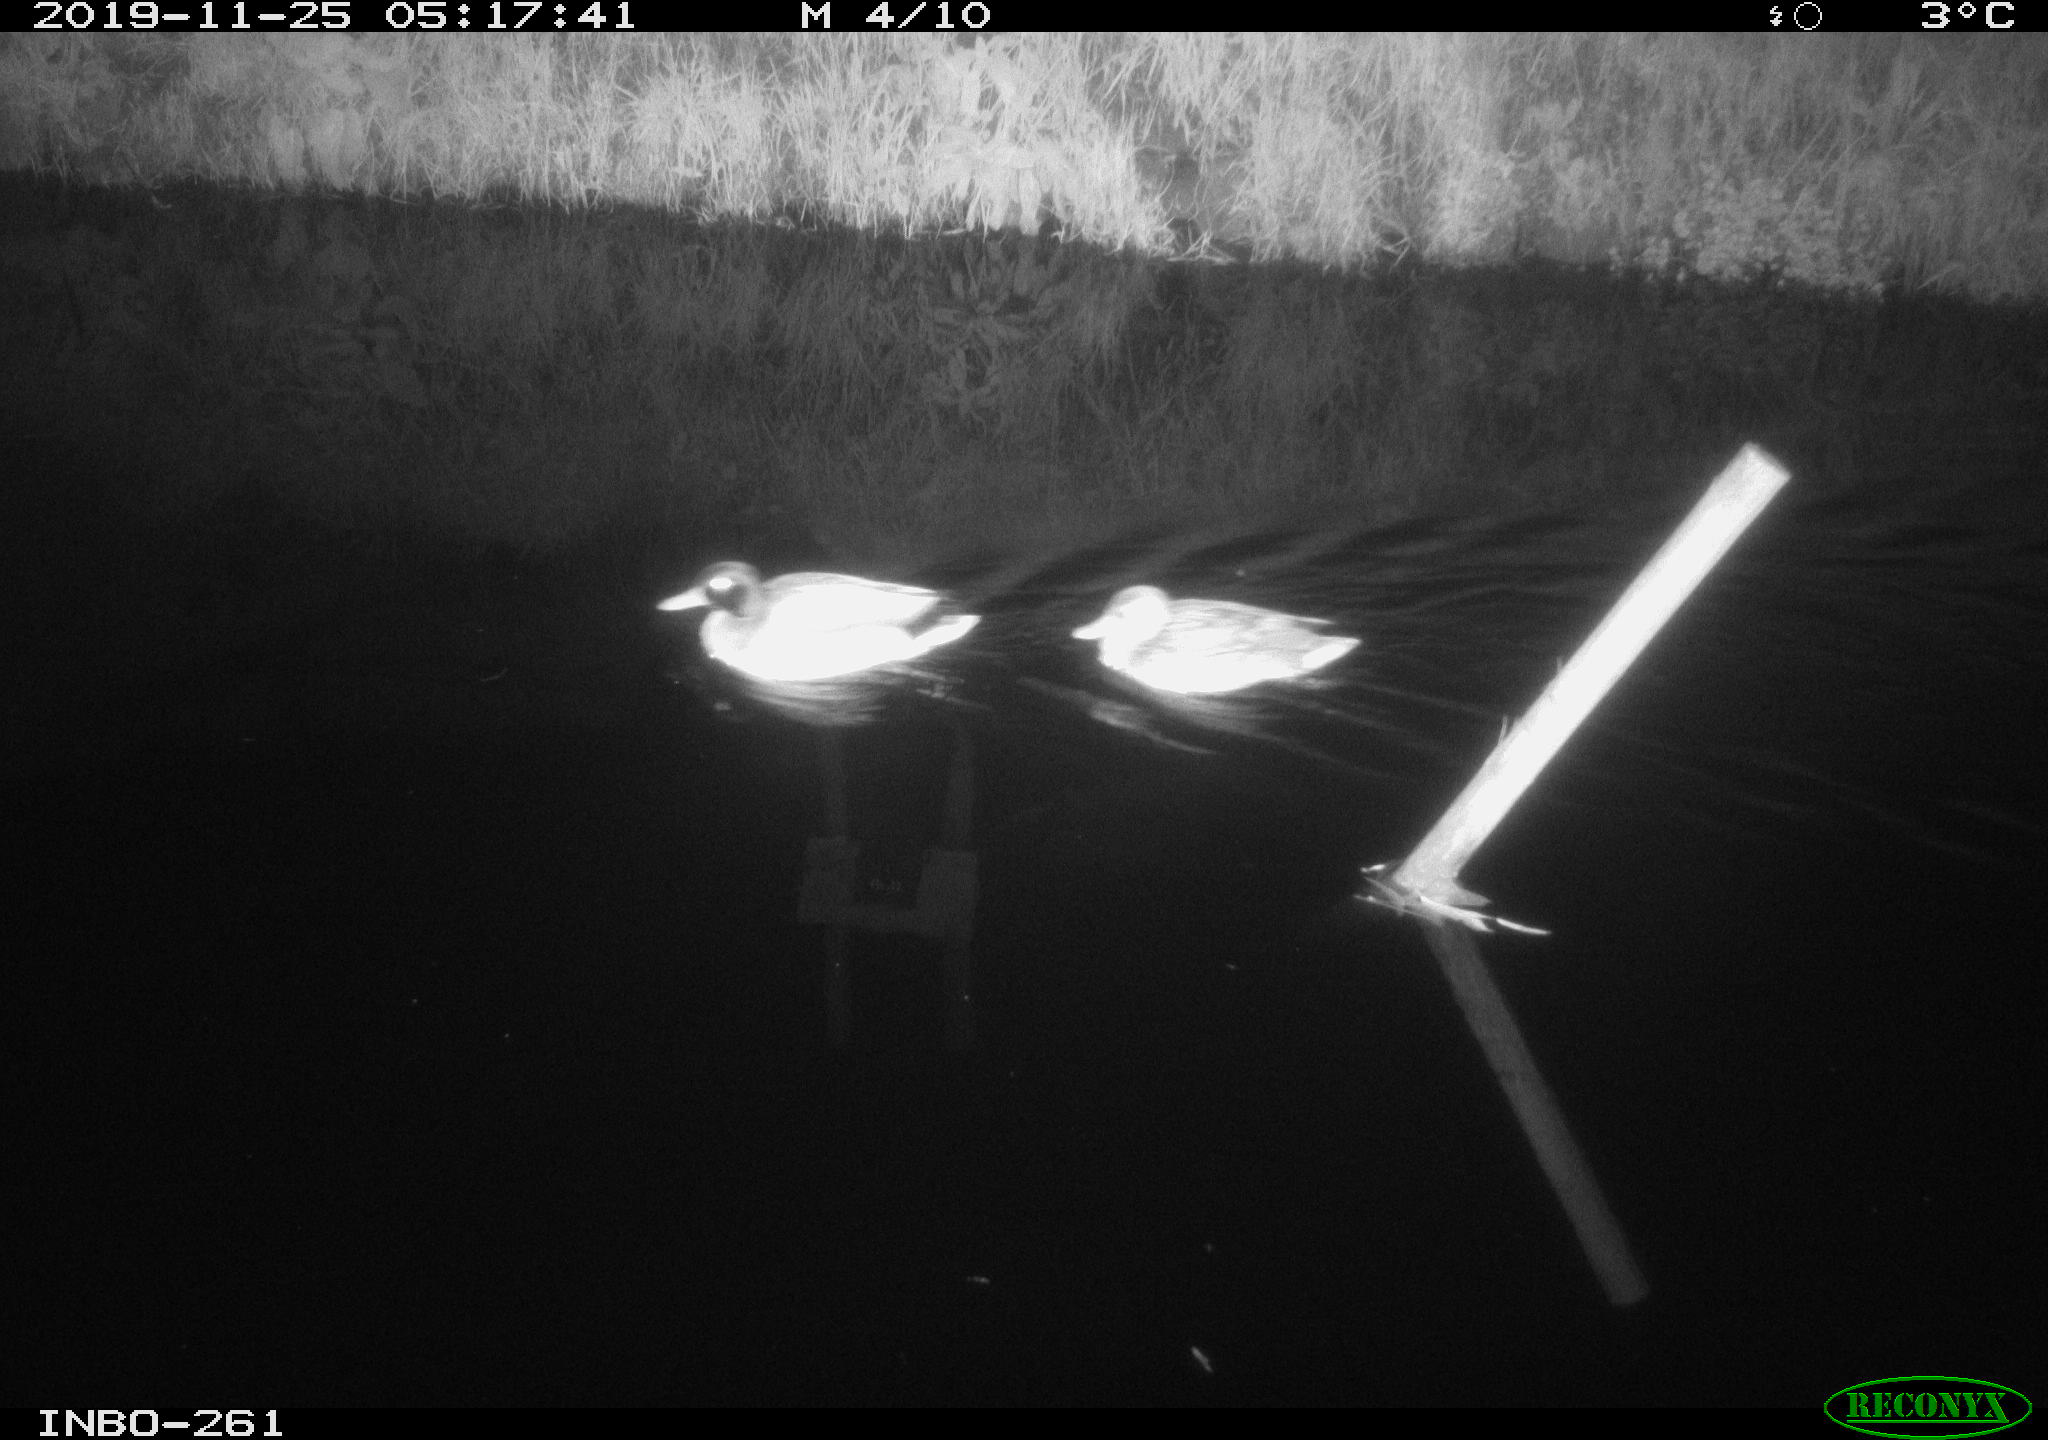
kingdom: Animalia
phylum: Chordata
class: Aves
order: Anseriformes
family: Anatidae
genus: Anas
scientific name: Anas platyrhynchos
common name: Mallard
